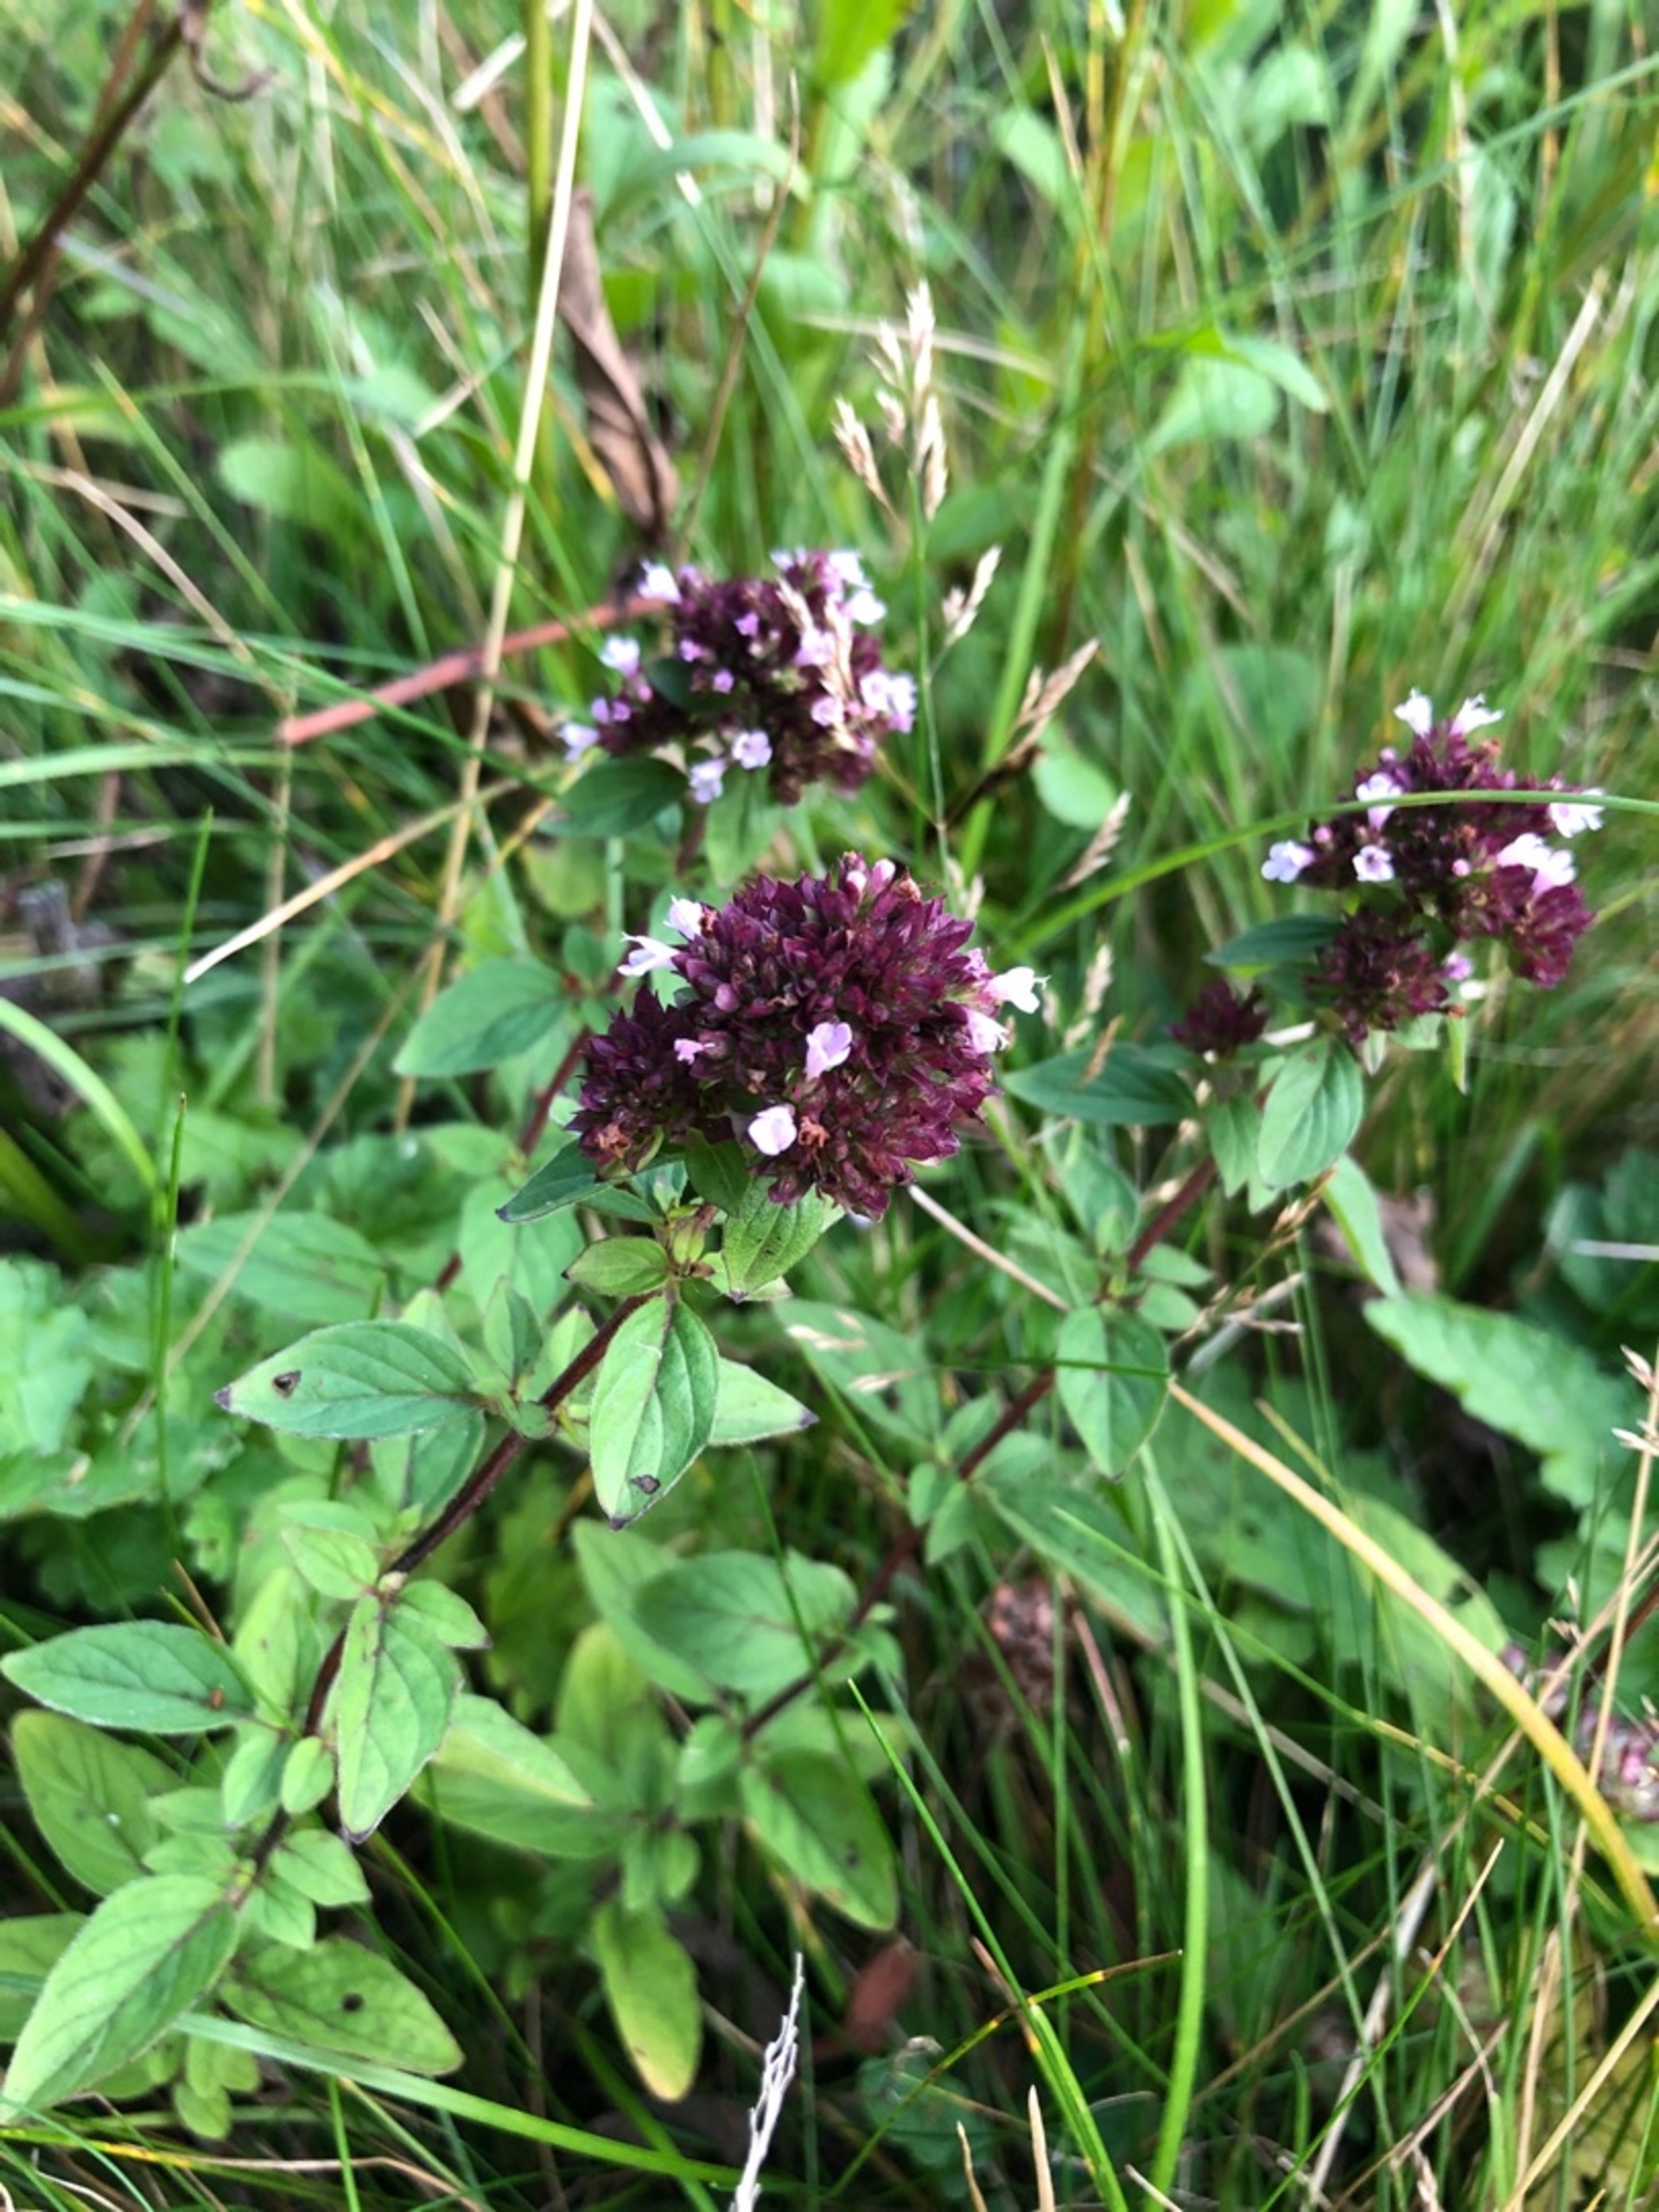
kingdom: Plantae
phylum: Tracheophyta
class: Magnoliopsida
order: Lamiales
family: Lamiaceae
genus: Origanum
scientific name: Origanum vulgare
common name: Merian
